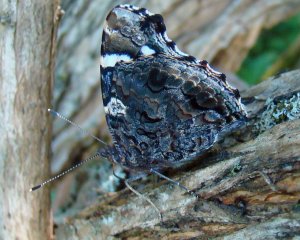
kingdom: Animalia
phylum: Arthropoda
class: Insecta
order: Lepidoptera
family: Nymphalidae
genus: Vanessa
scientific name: Vanessa atalanta
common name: Red Admiral
